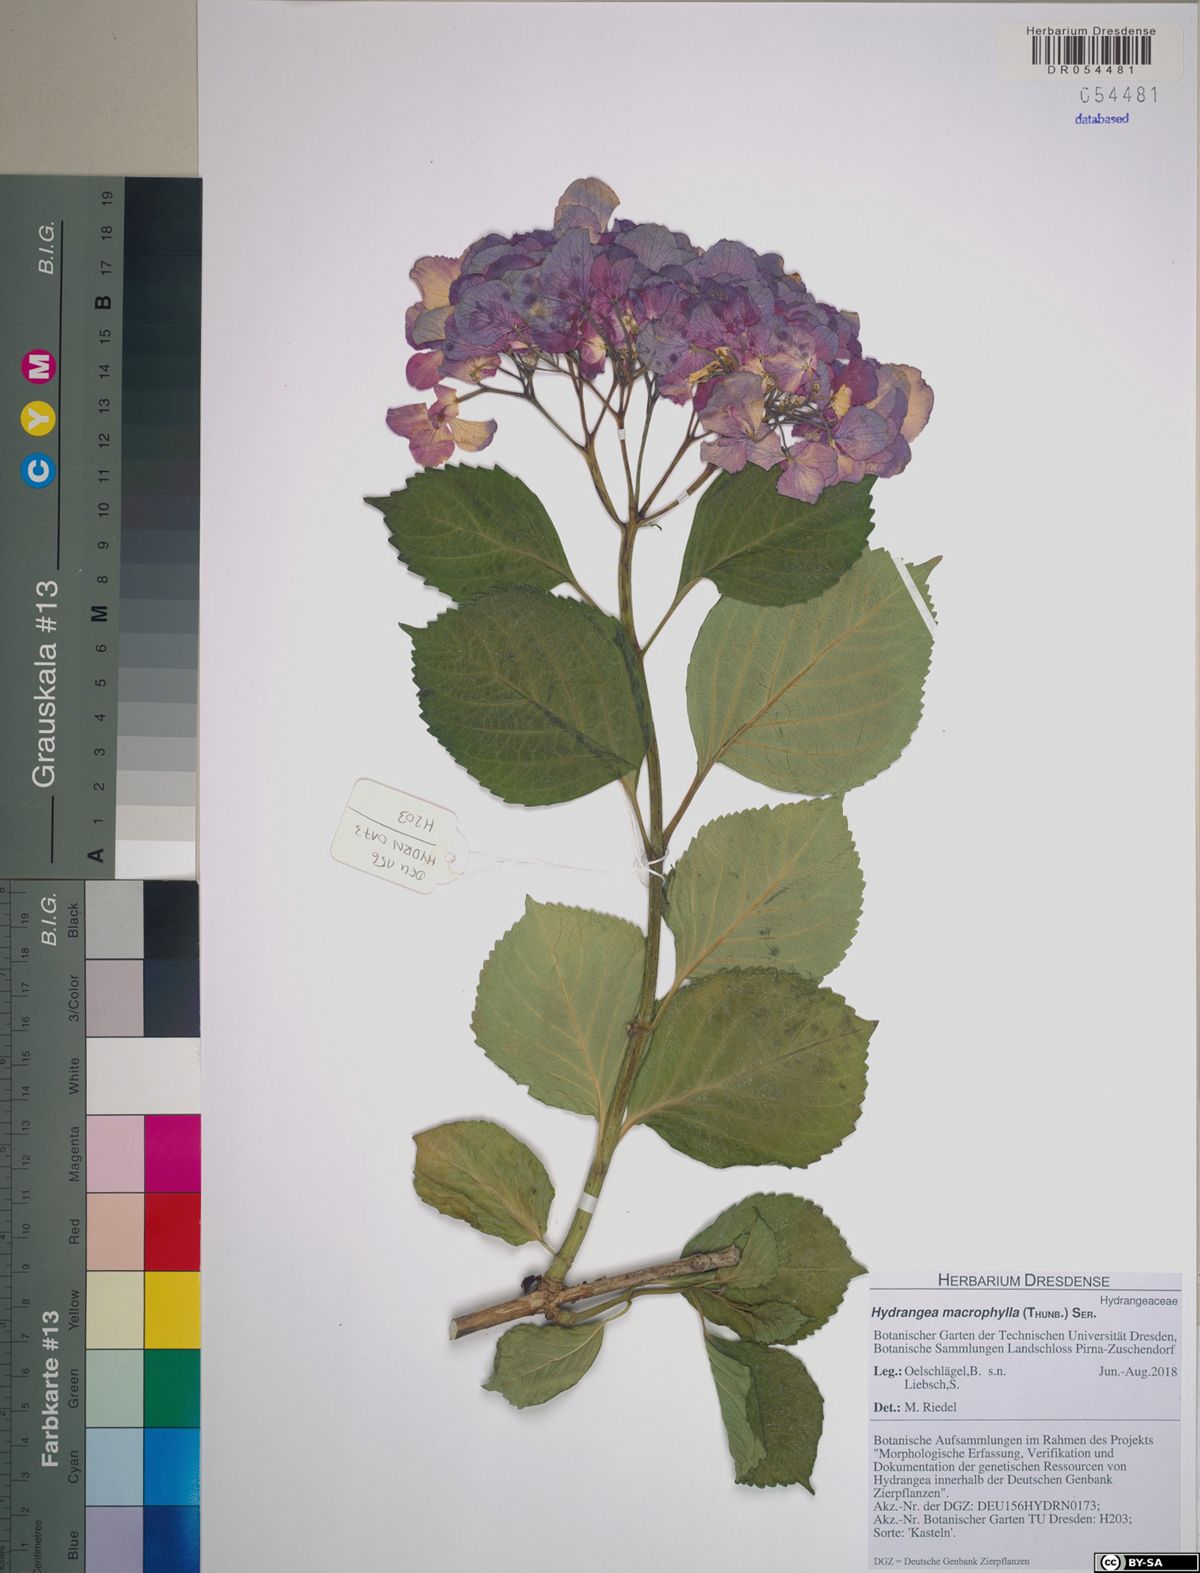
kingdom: Plantae
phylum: Tracheophyta
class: Magnoliopsida
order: Cornales
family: Hydrangeaceae
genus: Hydrangea
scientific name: Hydrangea macrophylla
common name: Hydrangea
